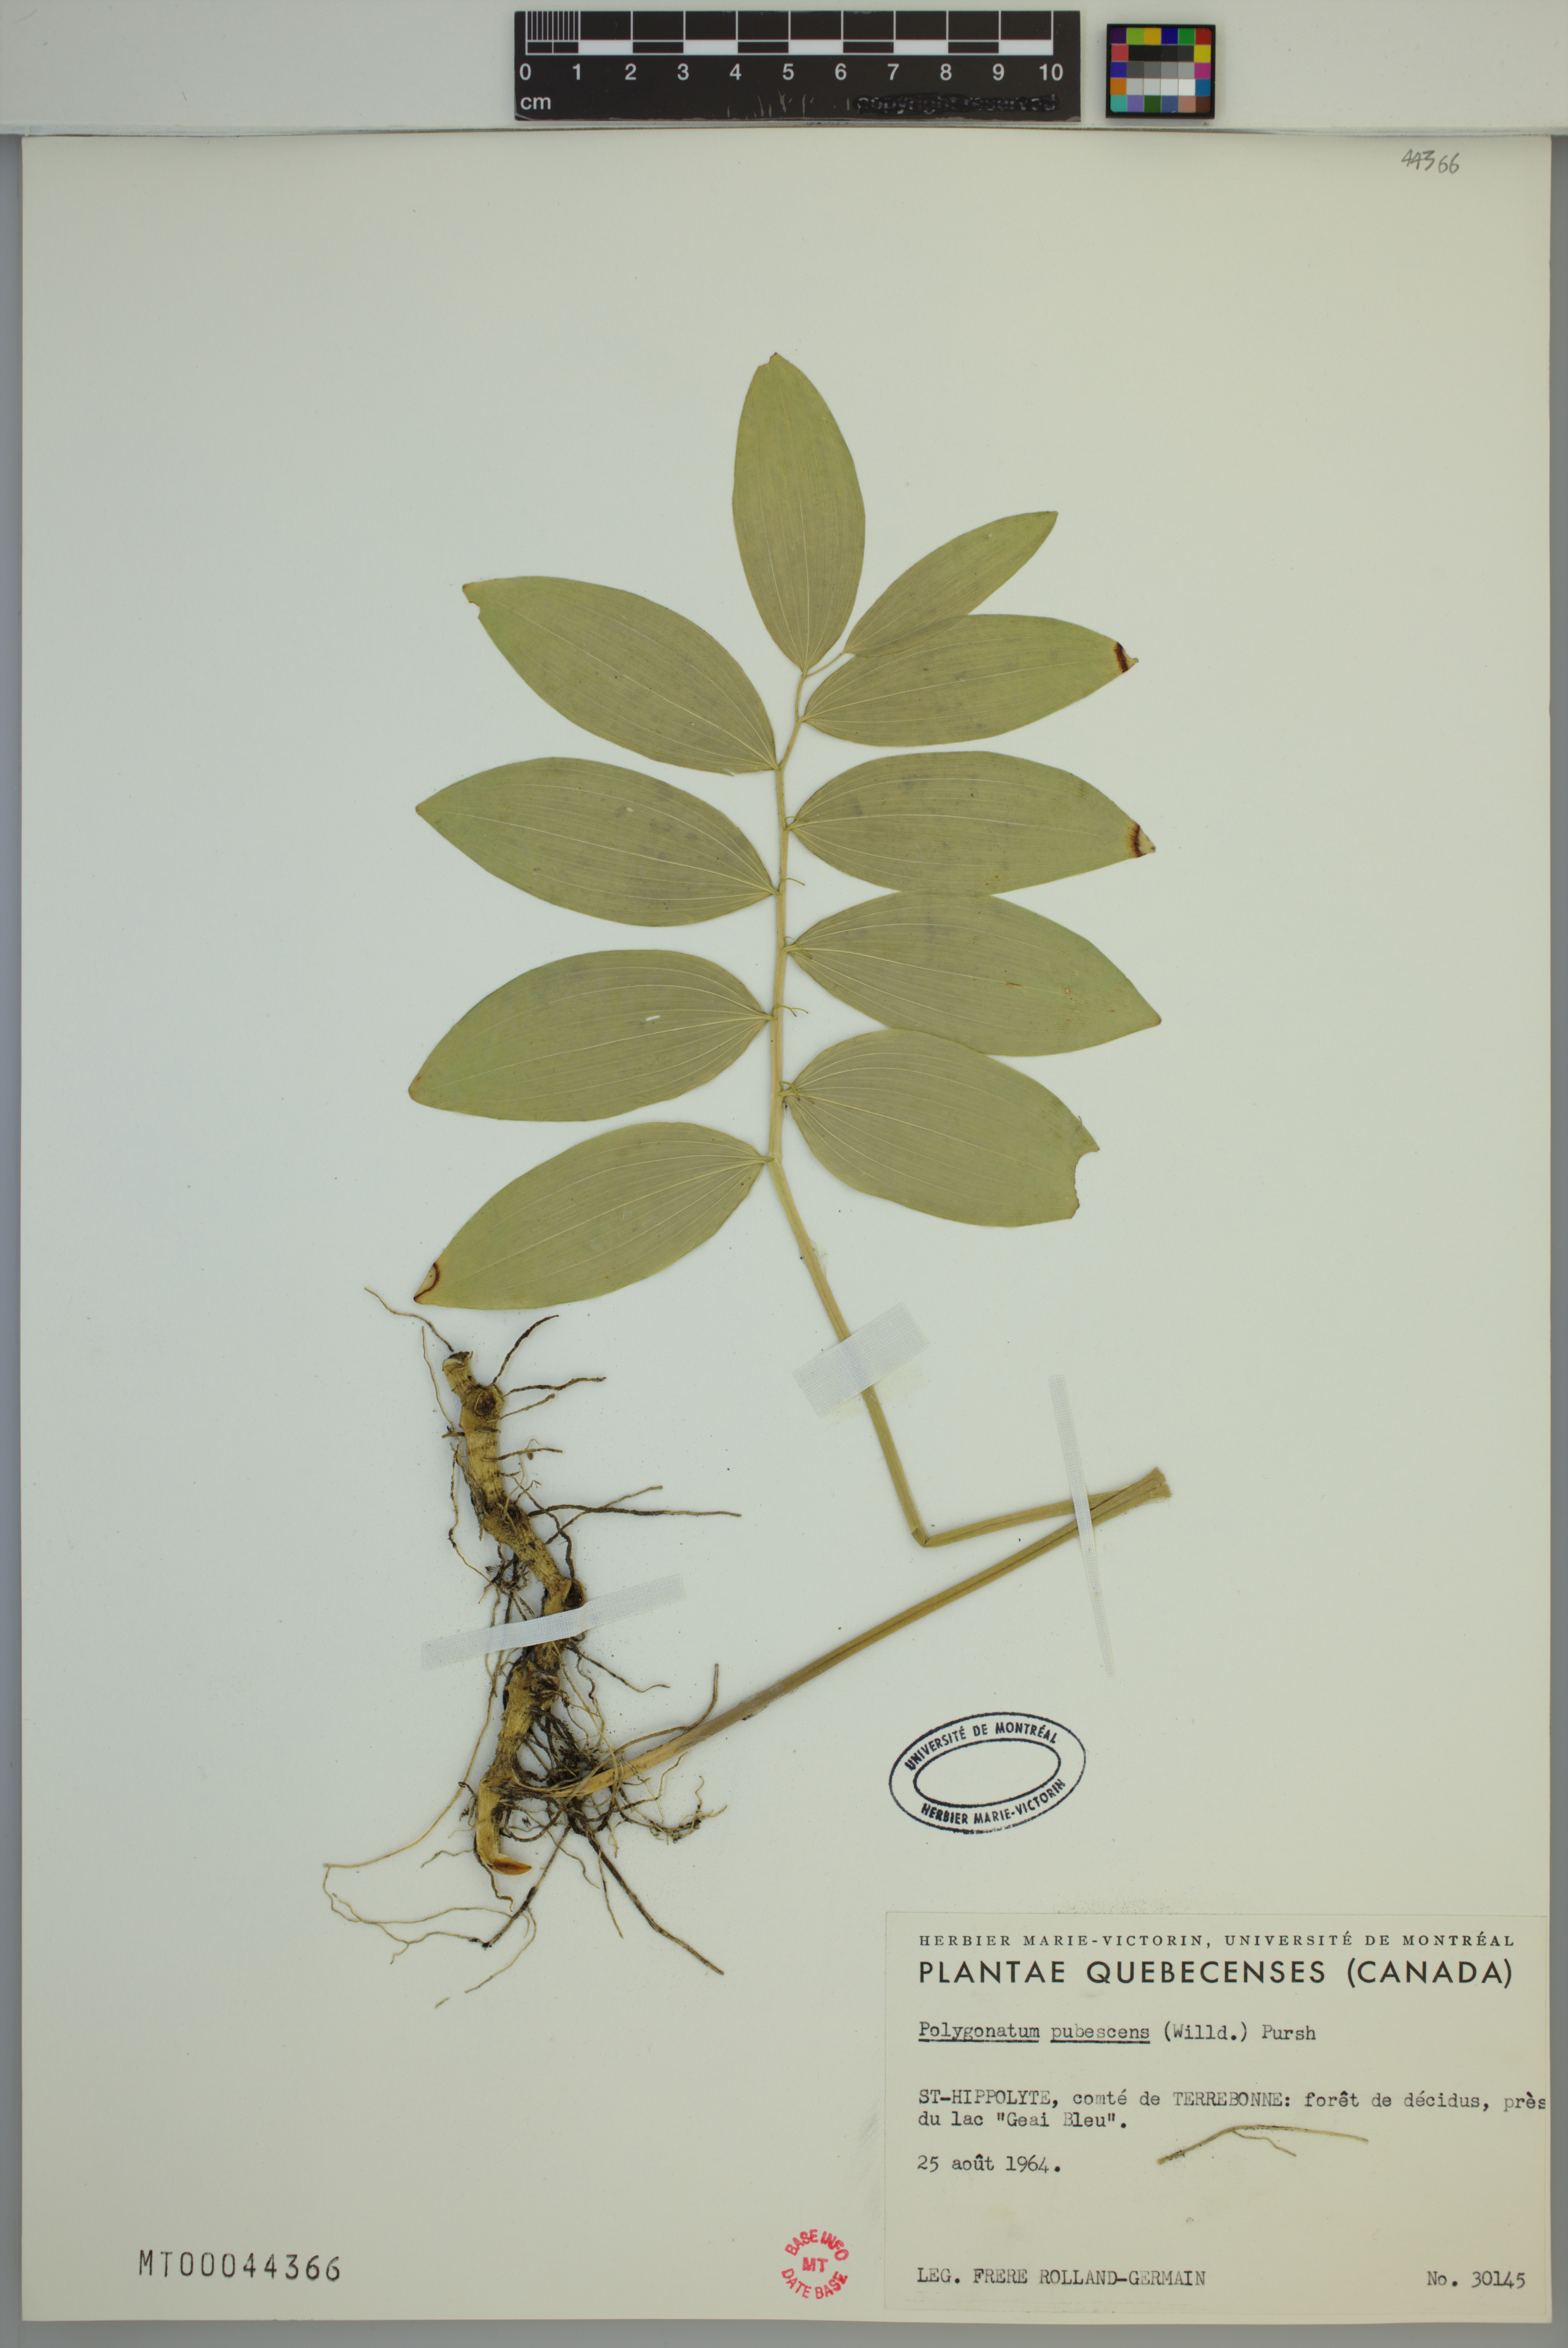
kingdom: Plantae
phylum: Tracheophyta
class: Liliopsida
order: Asparagales
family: Asparagaceae
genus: Polygonatum
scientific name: Polygonatum pubescens
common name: Downy solomon's seal
